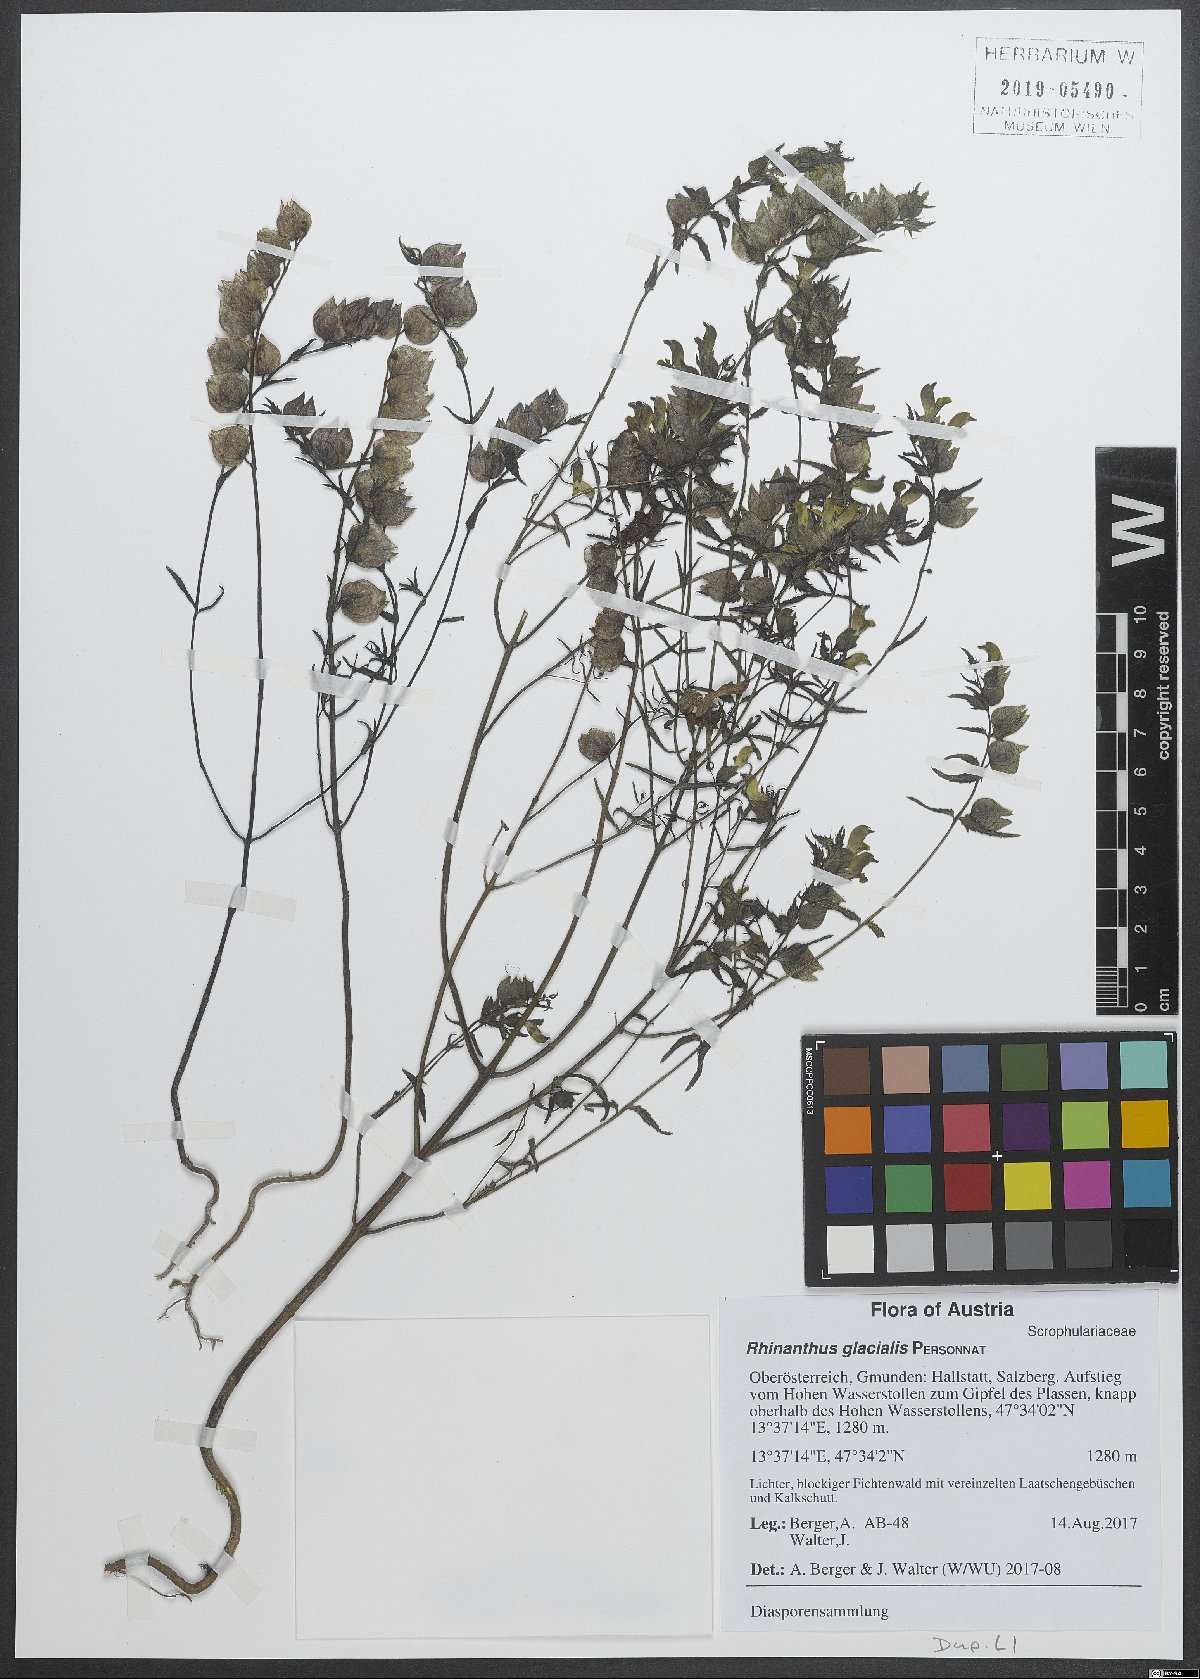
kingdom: Plantae
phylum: Tracheophyta
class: Magnoliopsida
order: Lamiales
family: Orobanchaceae
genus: Rhinanthus
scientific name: Rhinanthus glacialis
